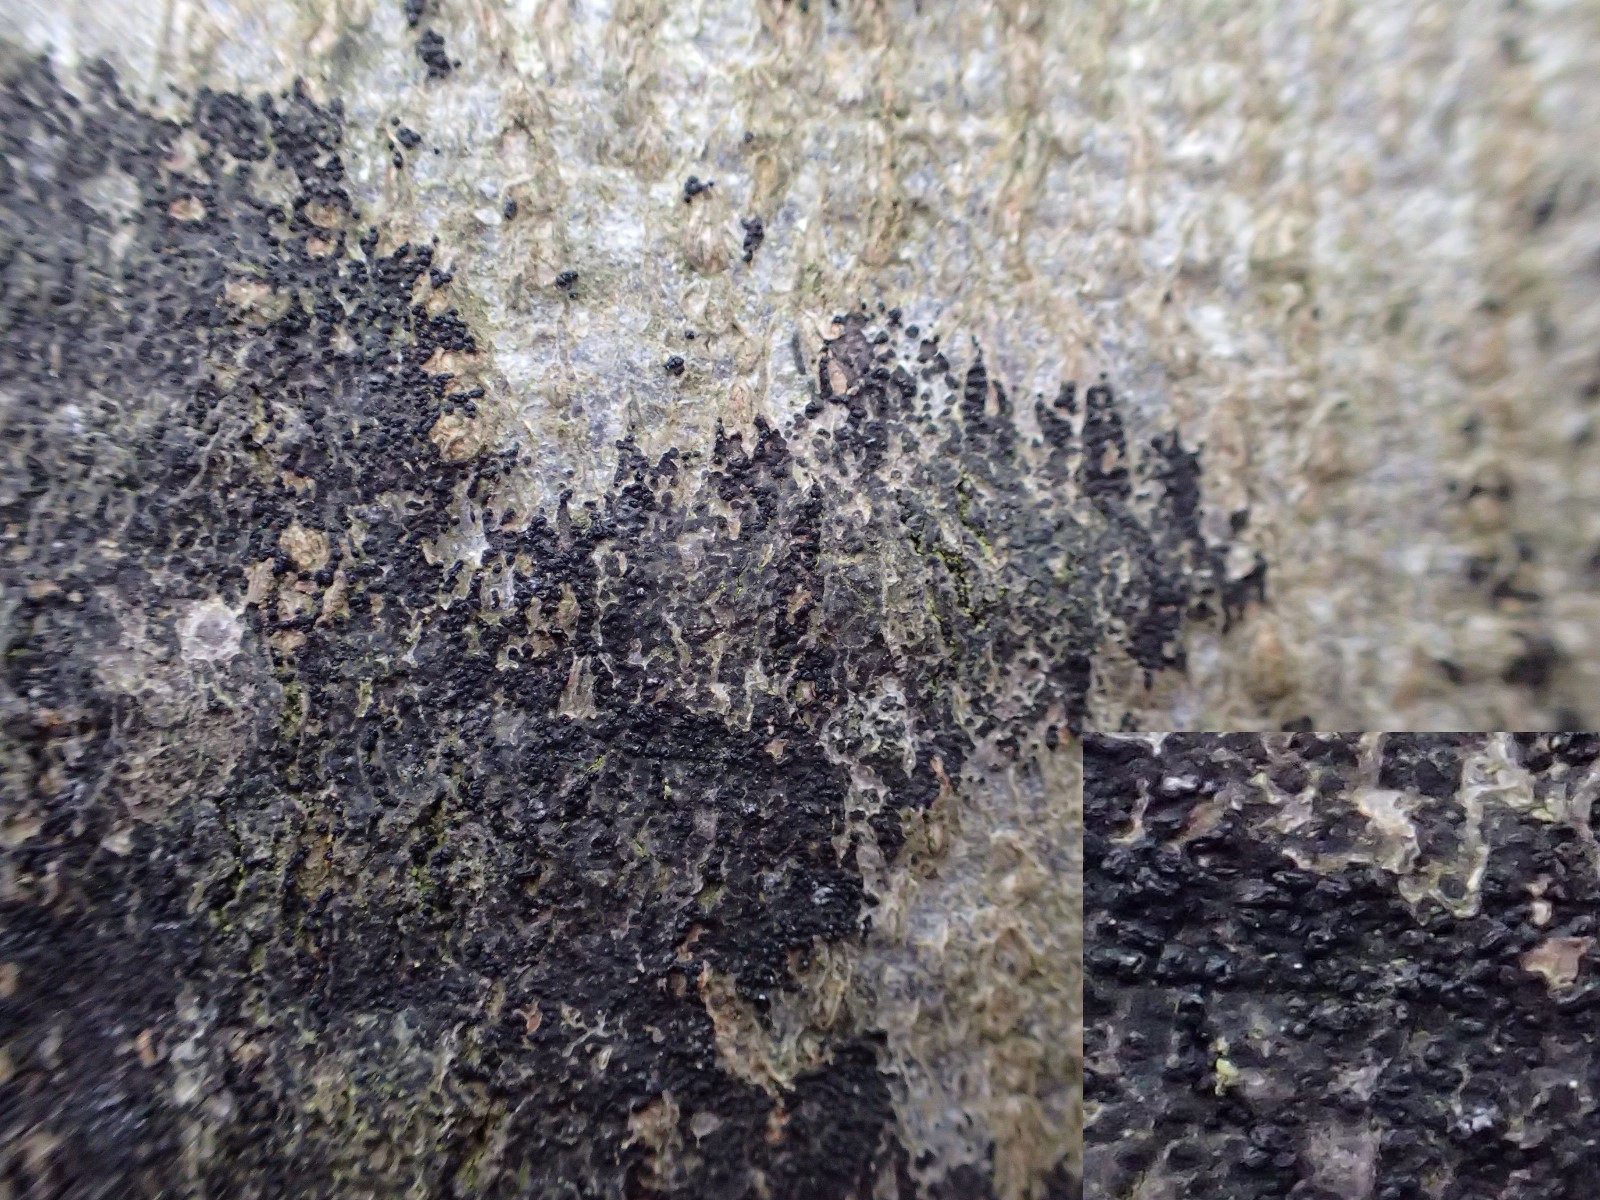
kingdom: Fungi
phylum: Ascomycota
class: Leotiomycetes
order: Rhytismatales
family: Ascodichaenaceae
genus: Ascodichaena
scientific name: Ascodichaena rugosa
